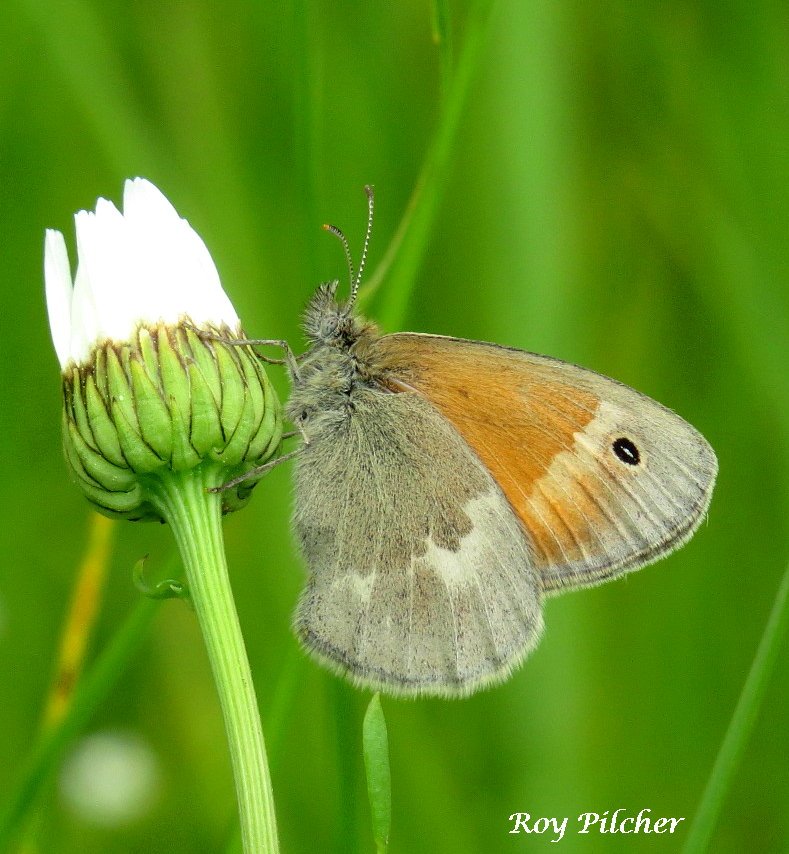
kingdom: Animalia
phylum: Arthropoda
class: Insecta
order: Lepidoptera
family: Nymphalidae
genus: Coenonympha
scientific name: Coenonympha tullia
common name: Large Heath
